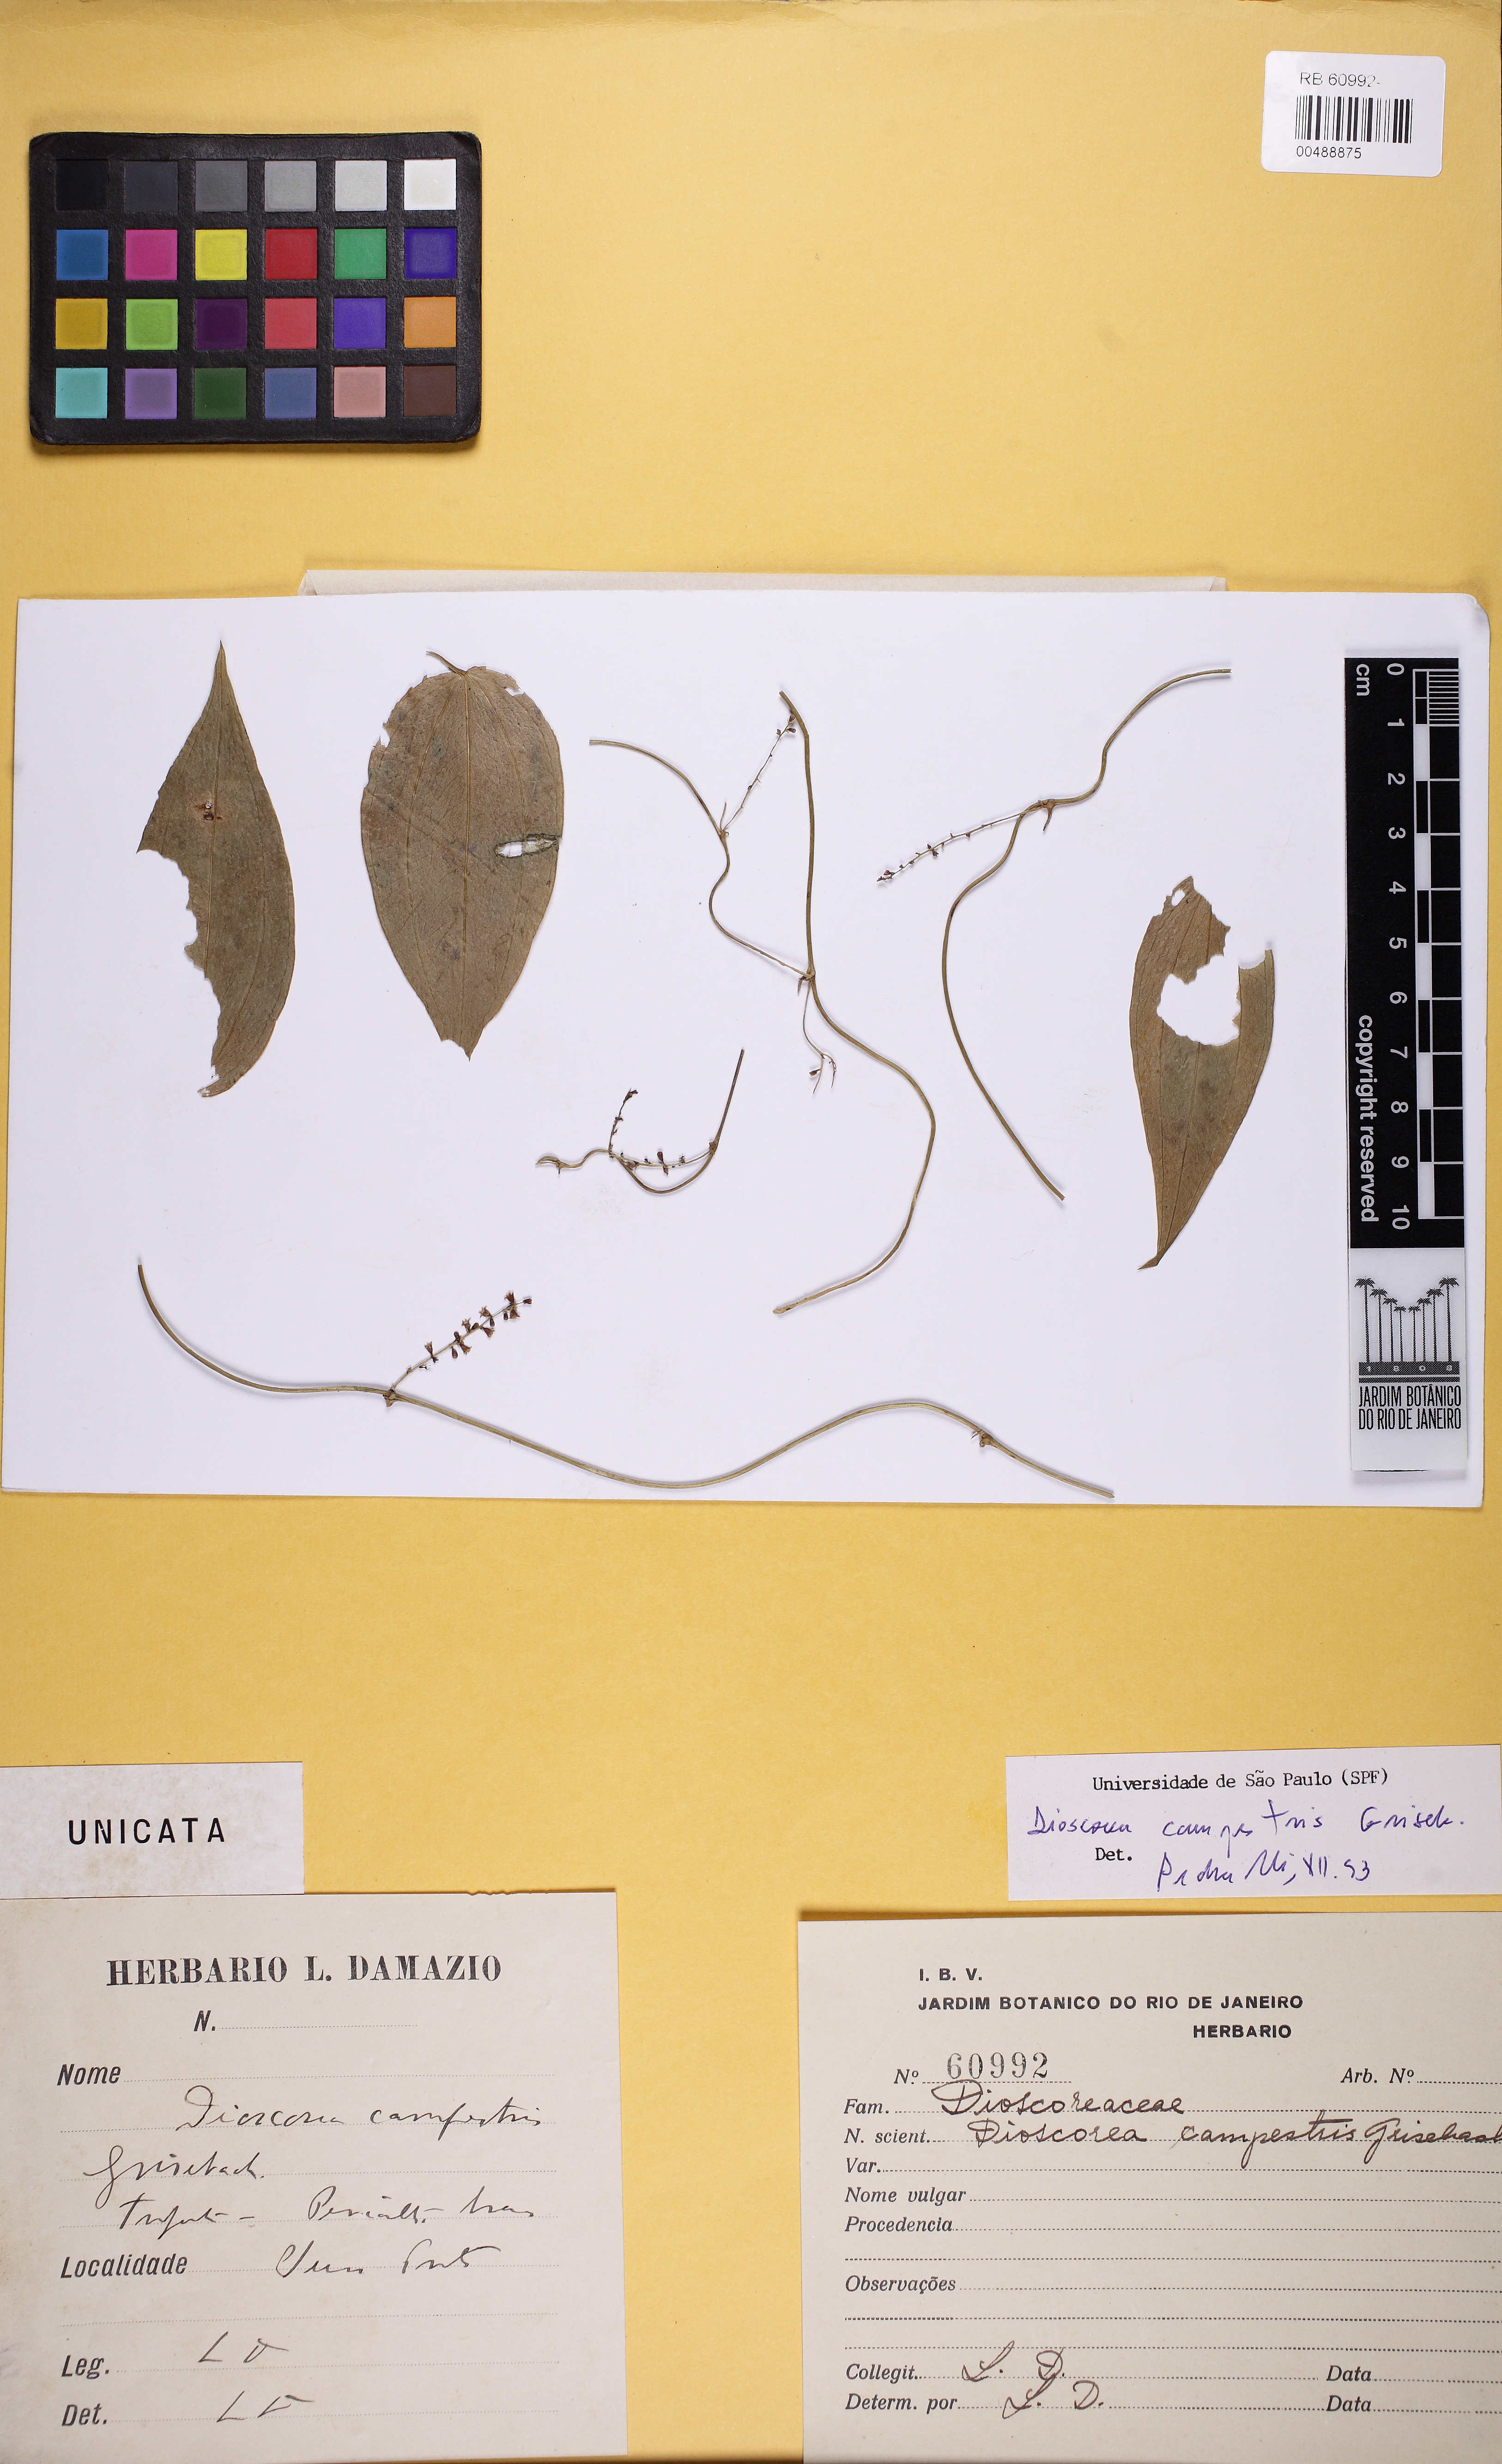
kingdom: Plantae
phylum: Tracheophyta
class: Liliopsida
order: Dioscoreales
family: Dioscoreaceae
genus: Dioscorea
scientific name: Dioscorea campestris
